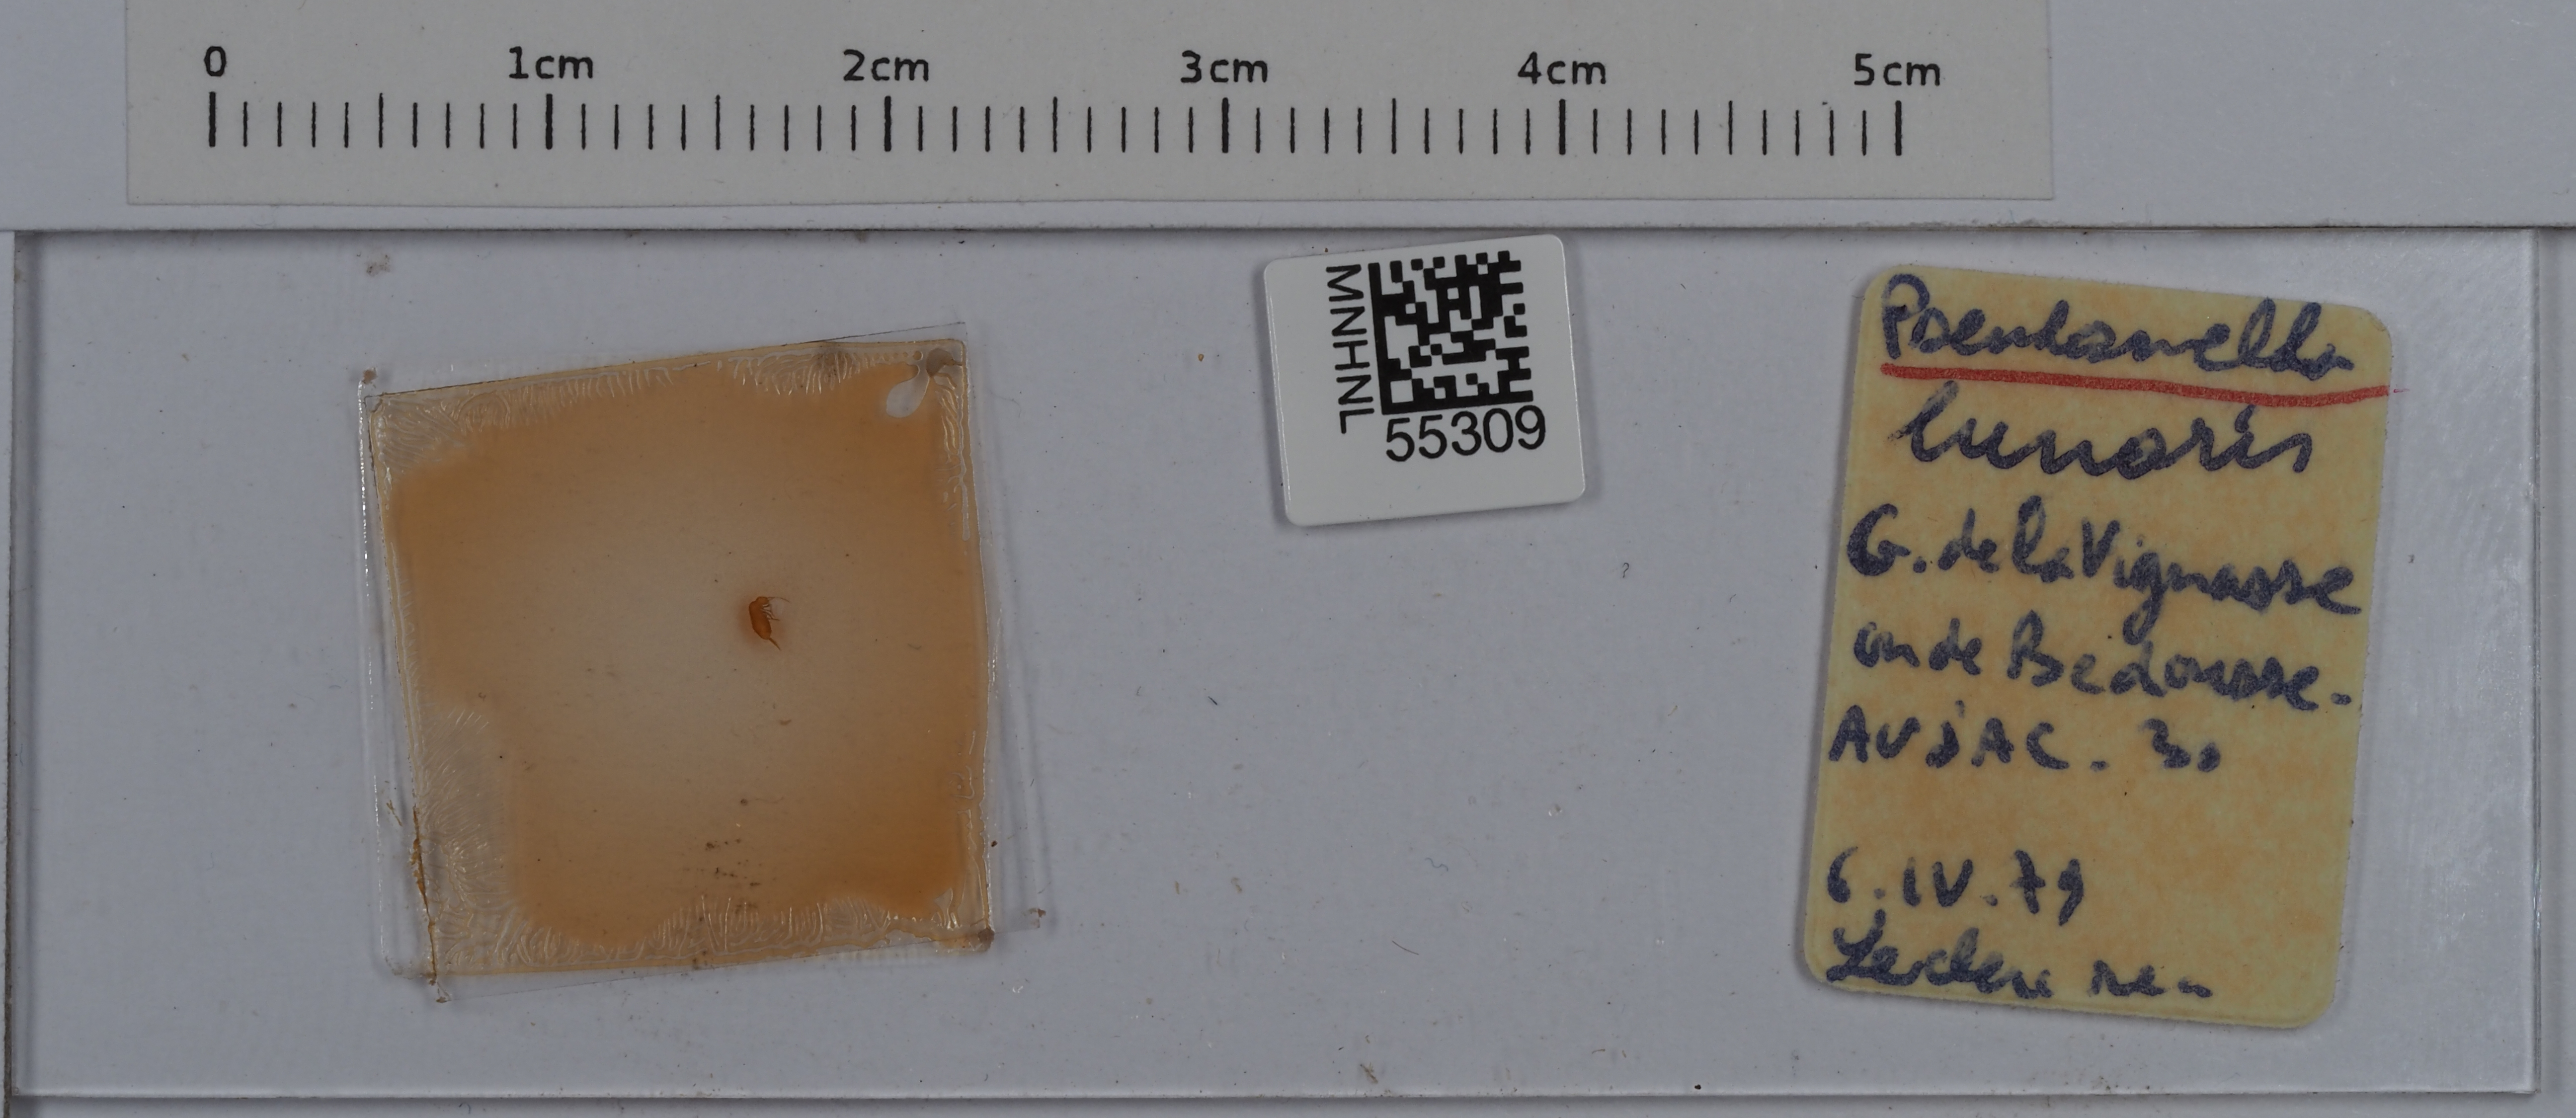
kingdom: Animalia
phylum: Arthropoda
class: Collembola
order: Entomobryomorpha
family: Entomobryidae
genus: Pseudosinella
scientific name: Pseudosinella lunaris
